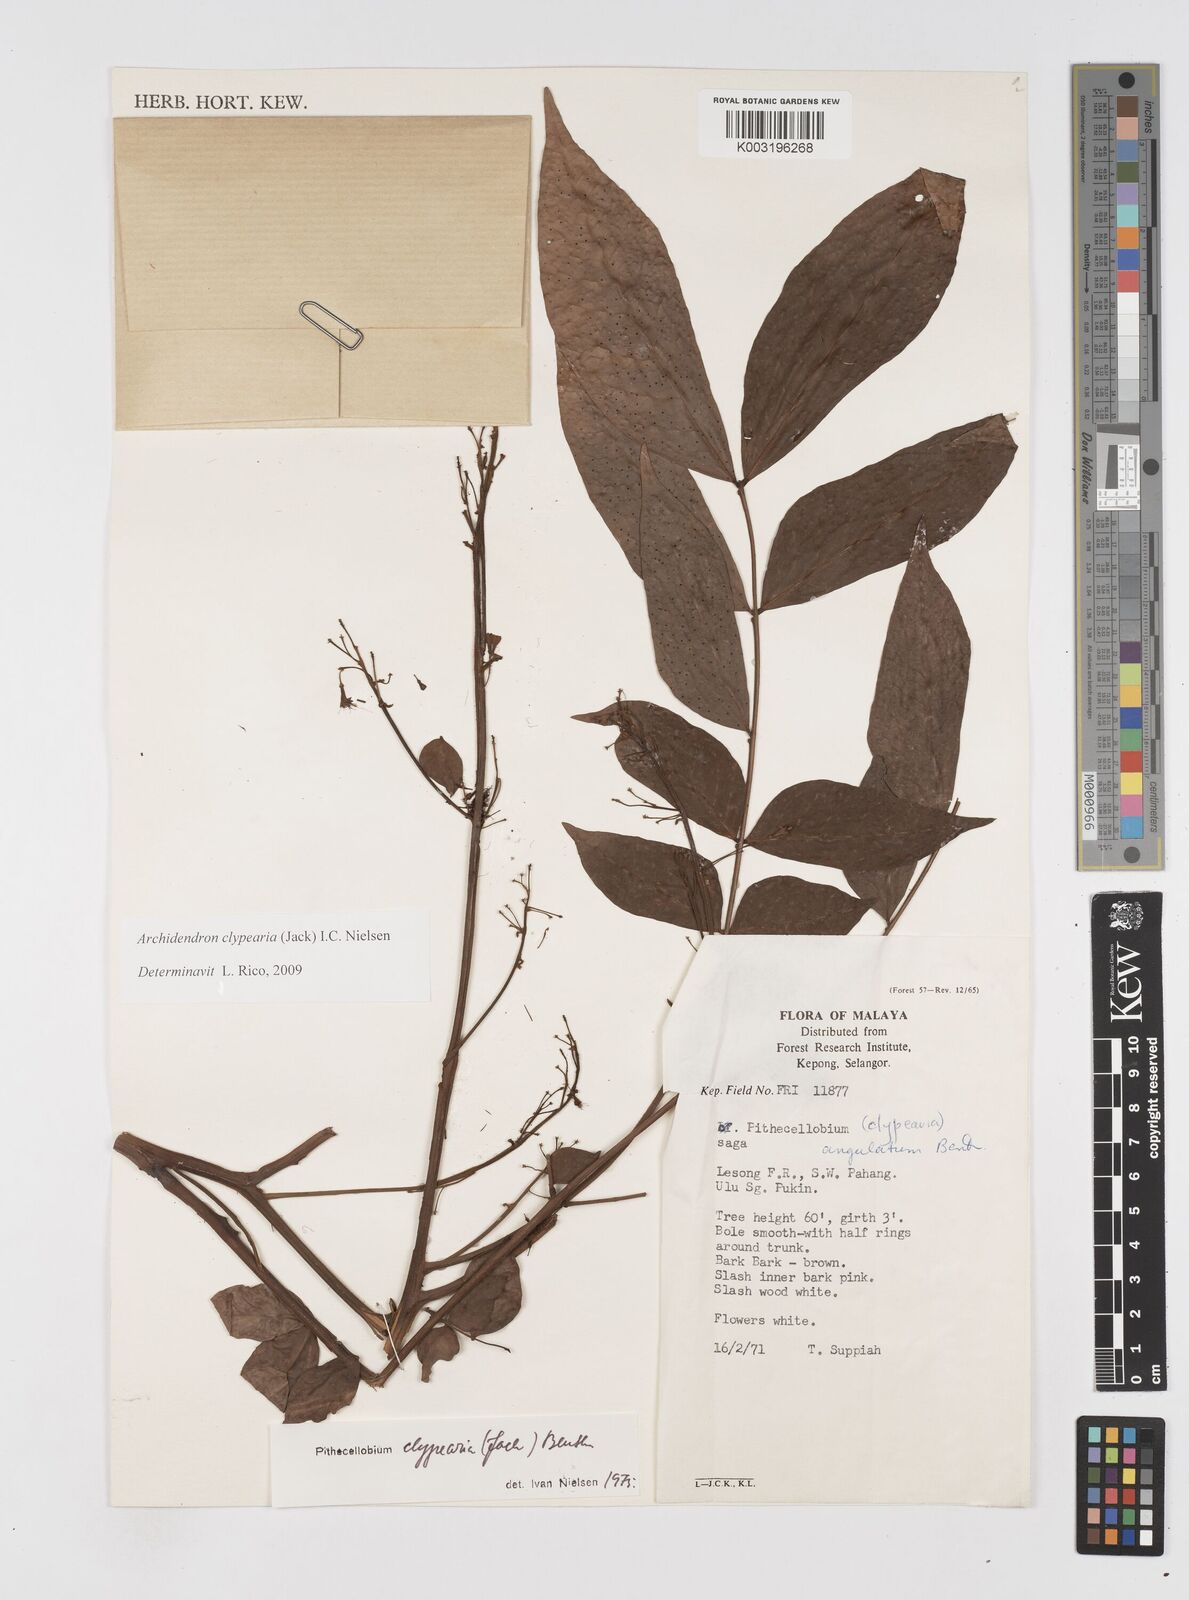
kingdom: Plantae
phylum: Tracheophyta
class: Magnoliopsida
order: Fabales
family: Fabaceae
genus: Archidendron
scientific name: Archidendron clypearia
